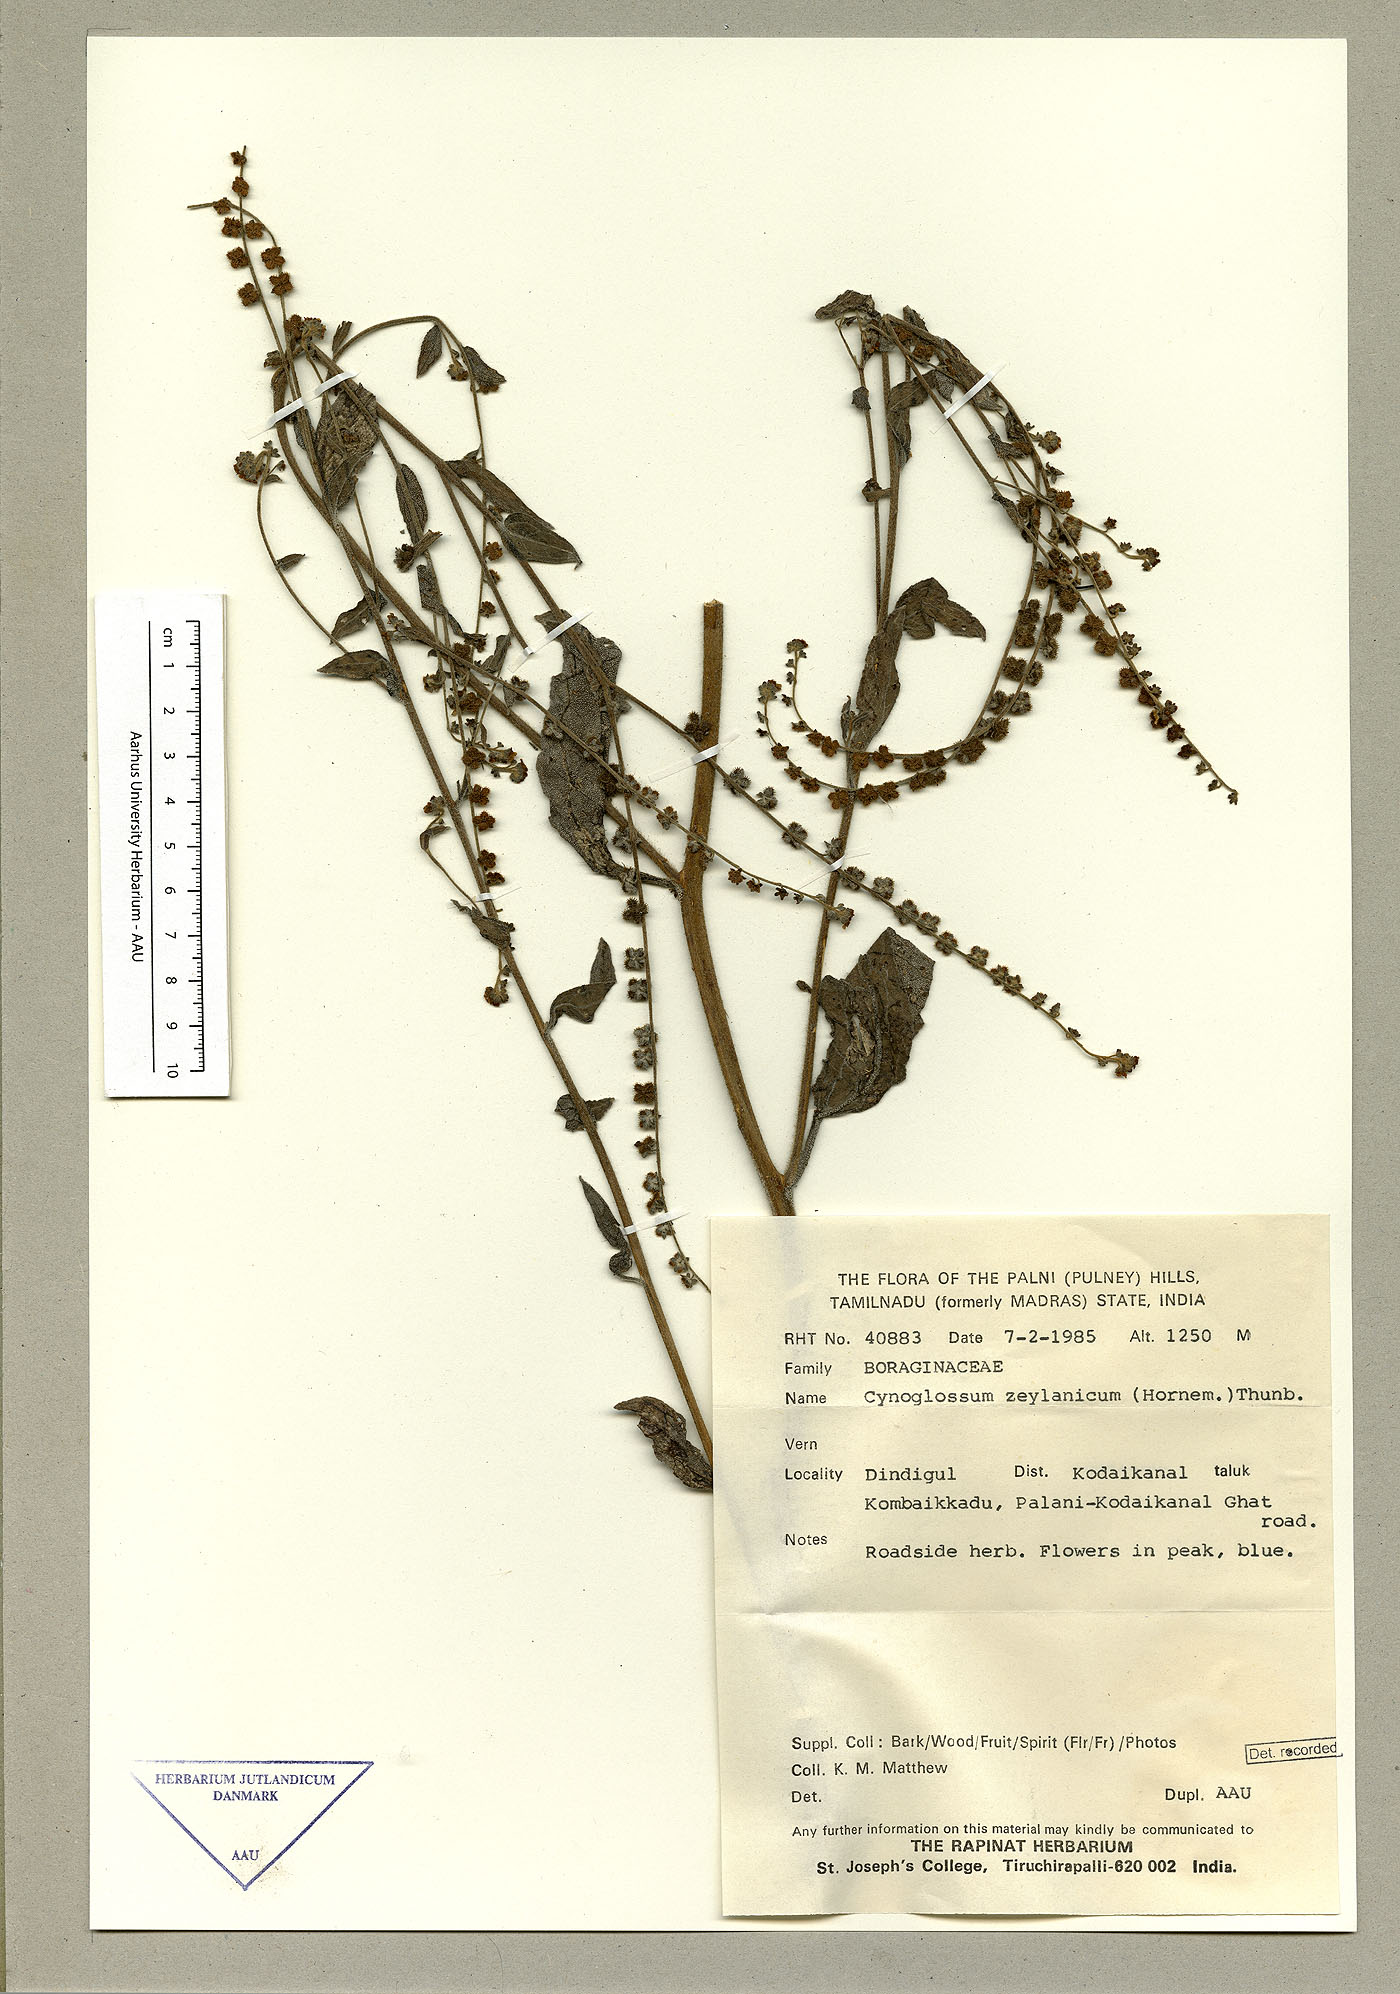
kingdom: Plantae
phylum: Tracheophyta
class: Magnoliopsida
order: Boraginales
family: Boraginaceae
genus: Rochelia
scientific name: Rochelia zeylanica
